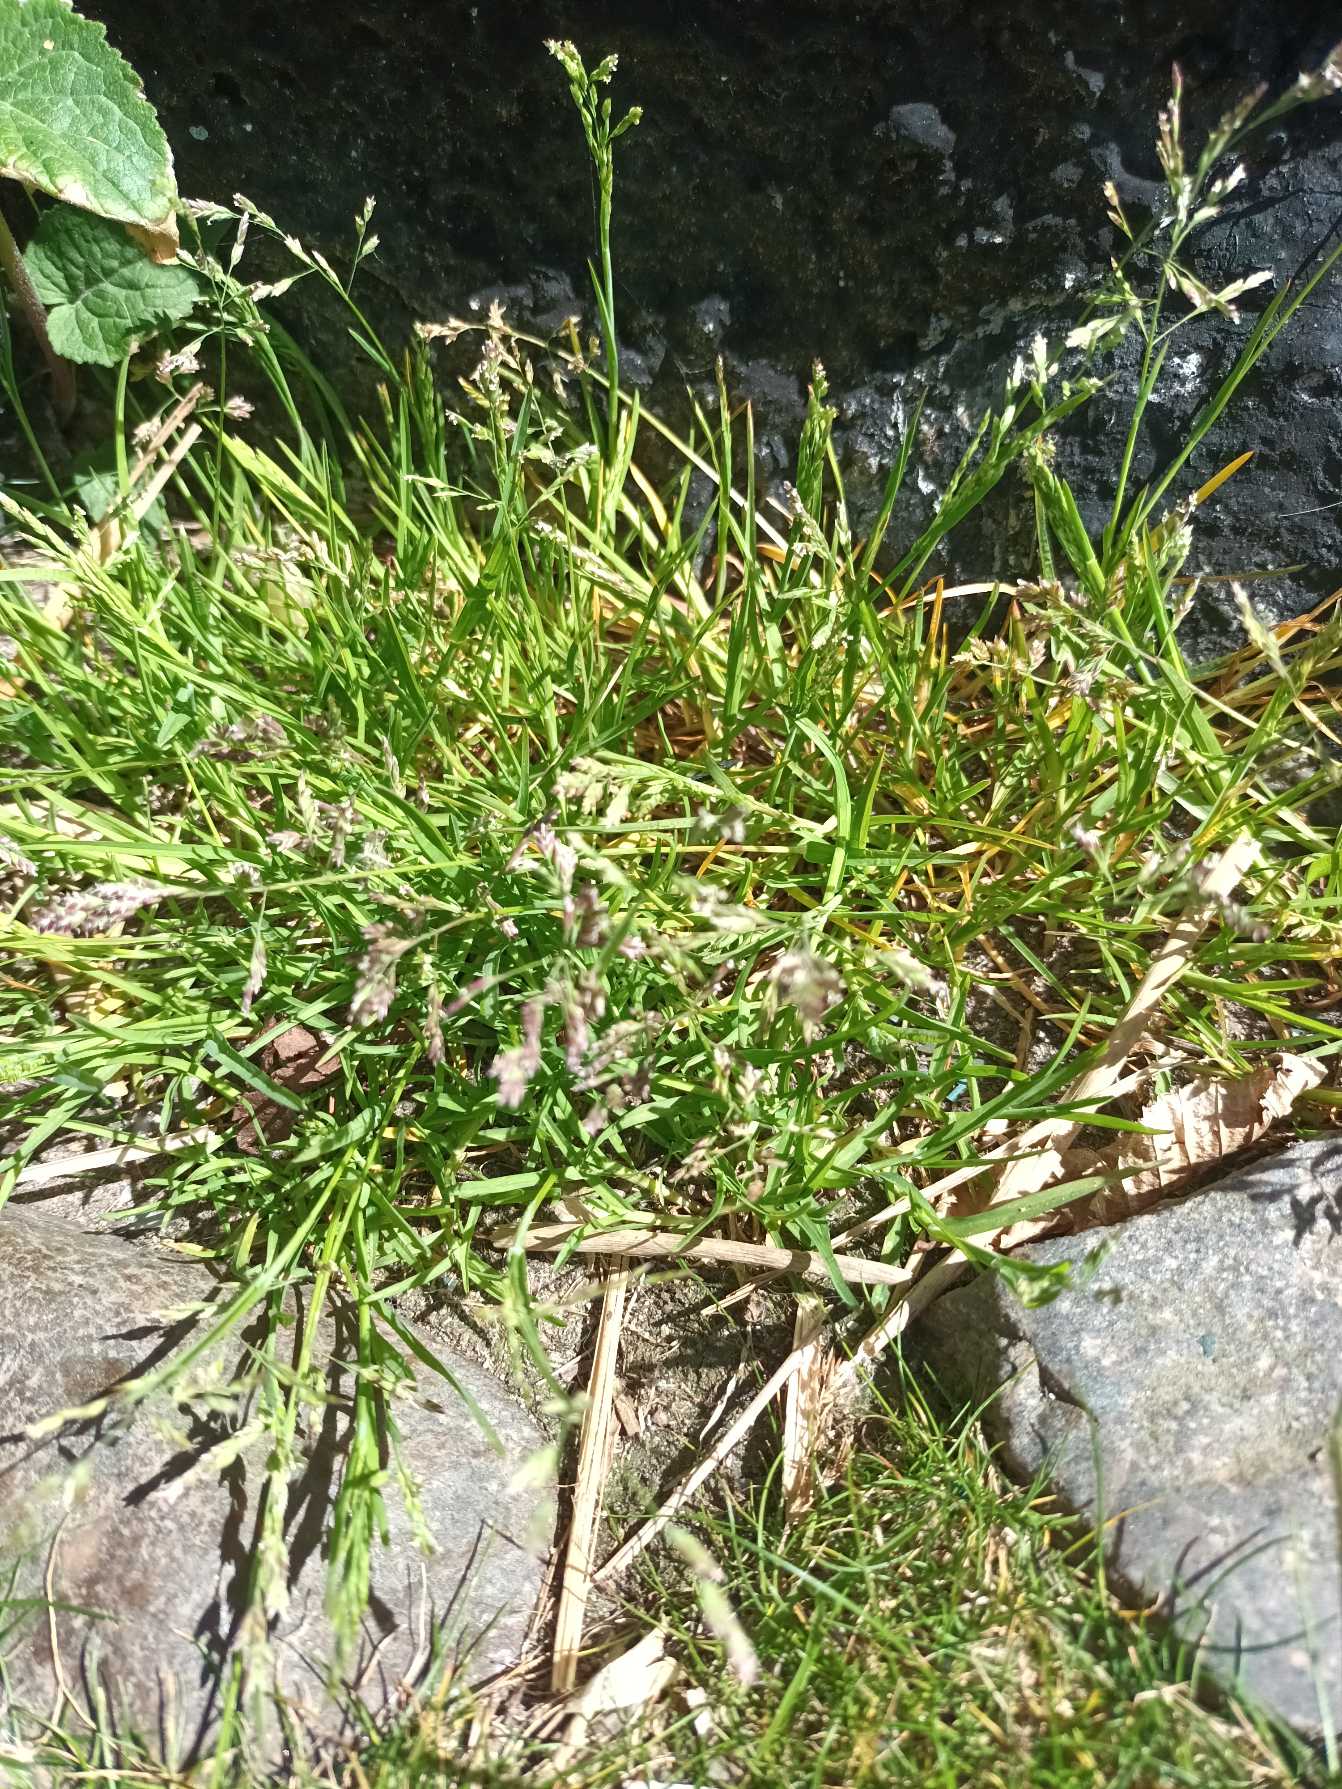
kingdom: Plantae
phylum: Tracheophyta
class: Liliopsida
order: Poales
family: Poaceae
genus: Poa
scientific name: Poa annua
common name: Enårig rapgræs
